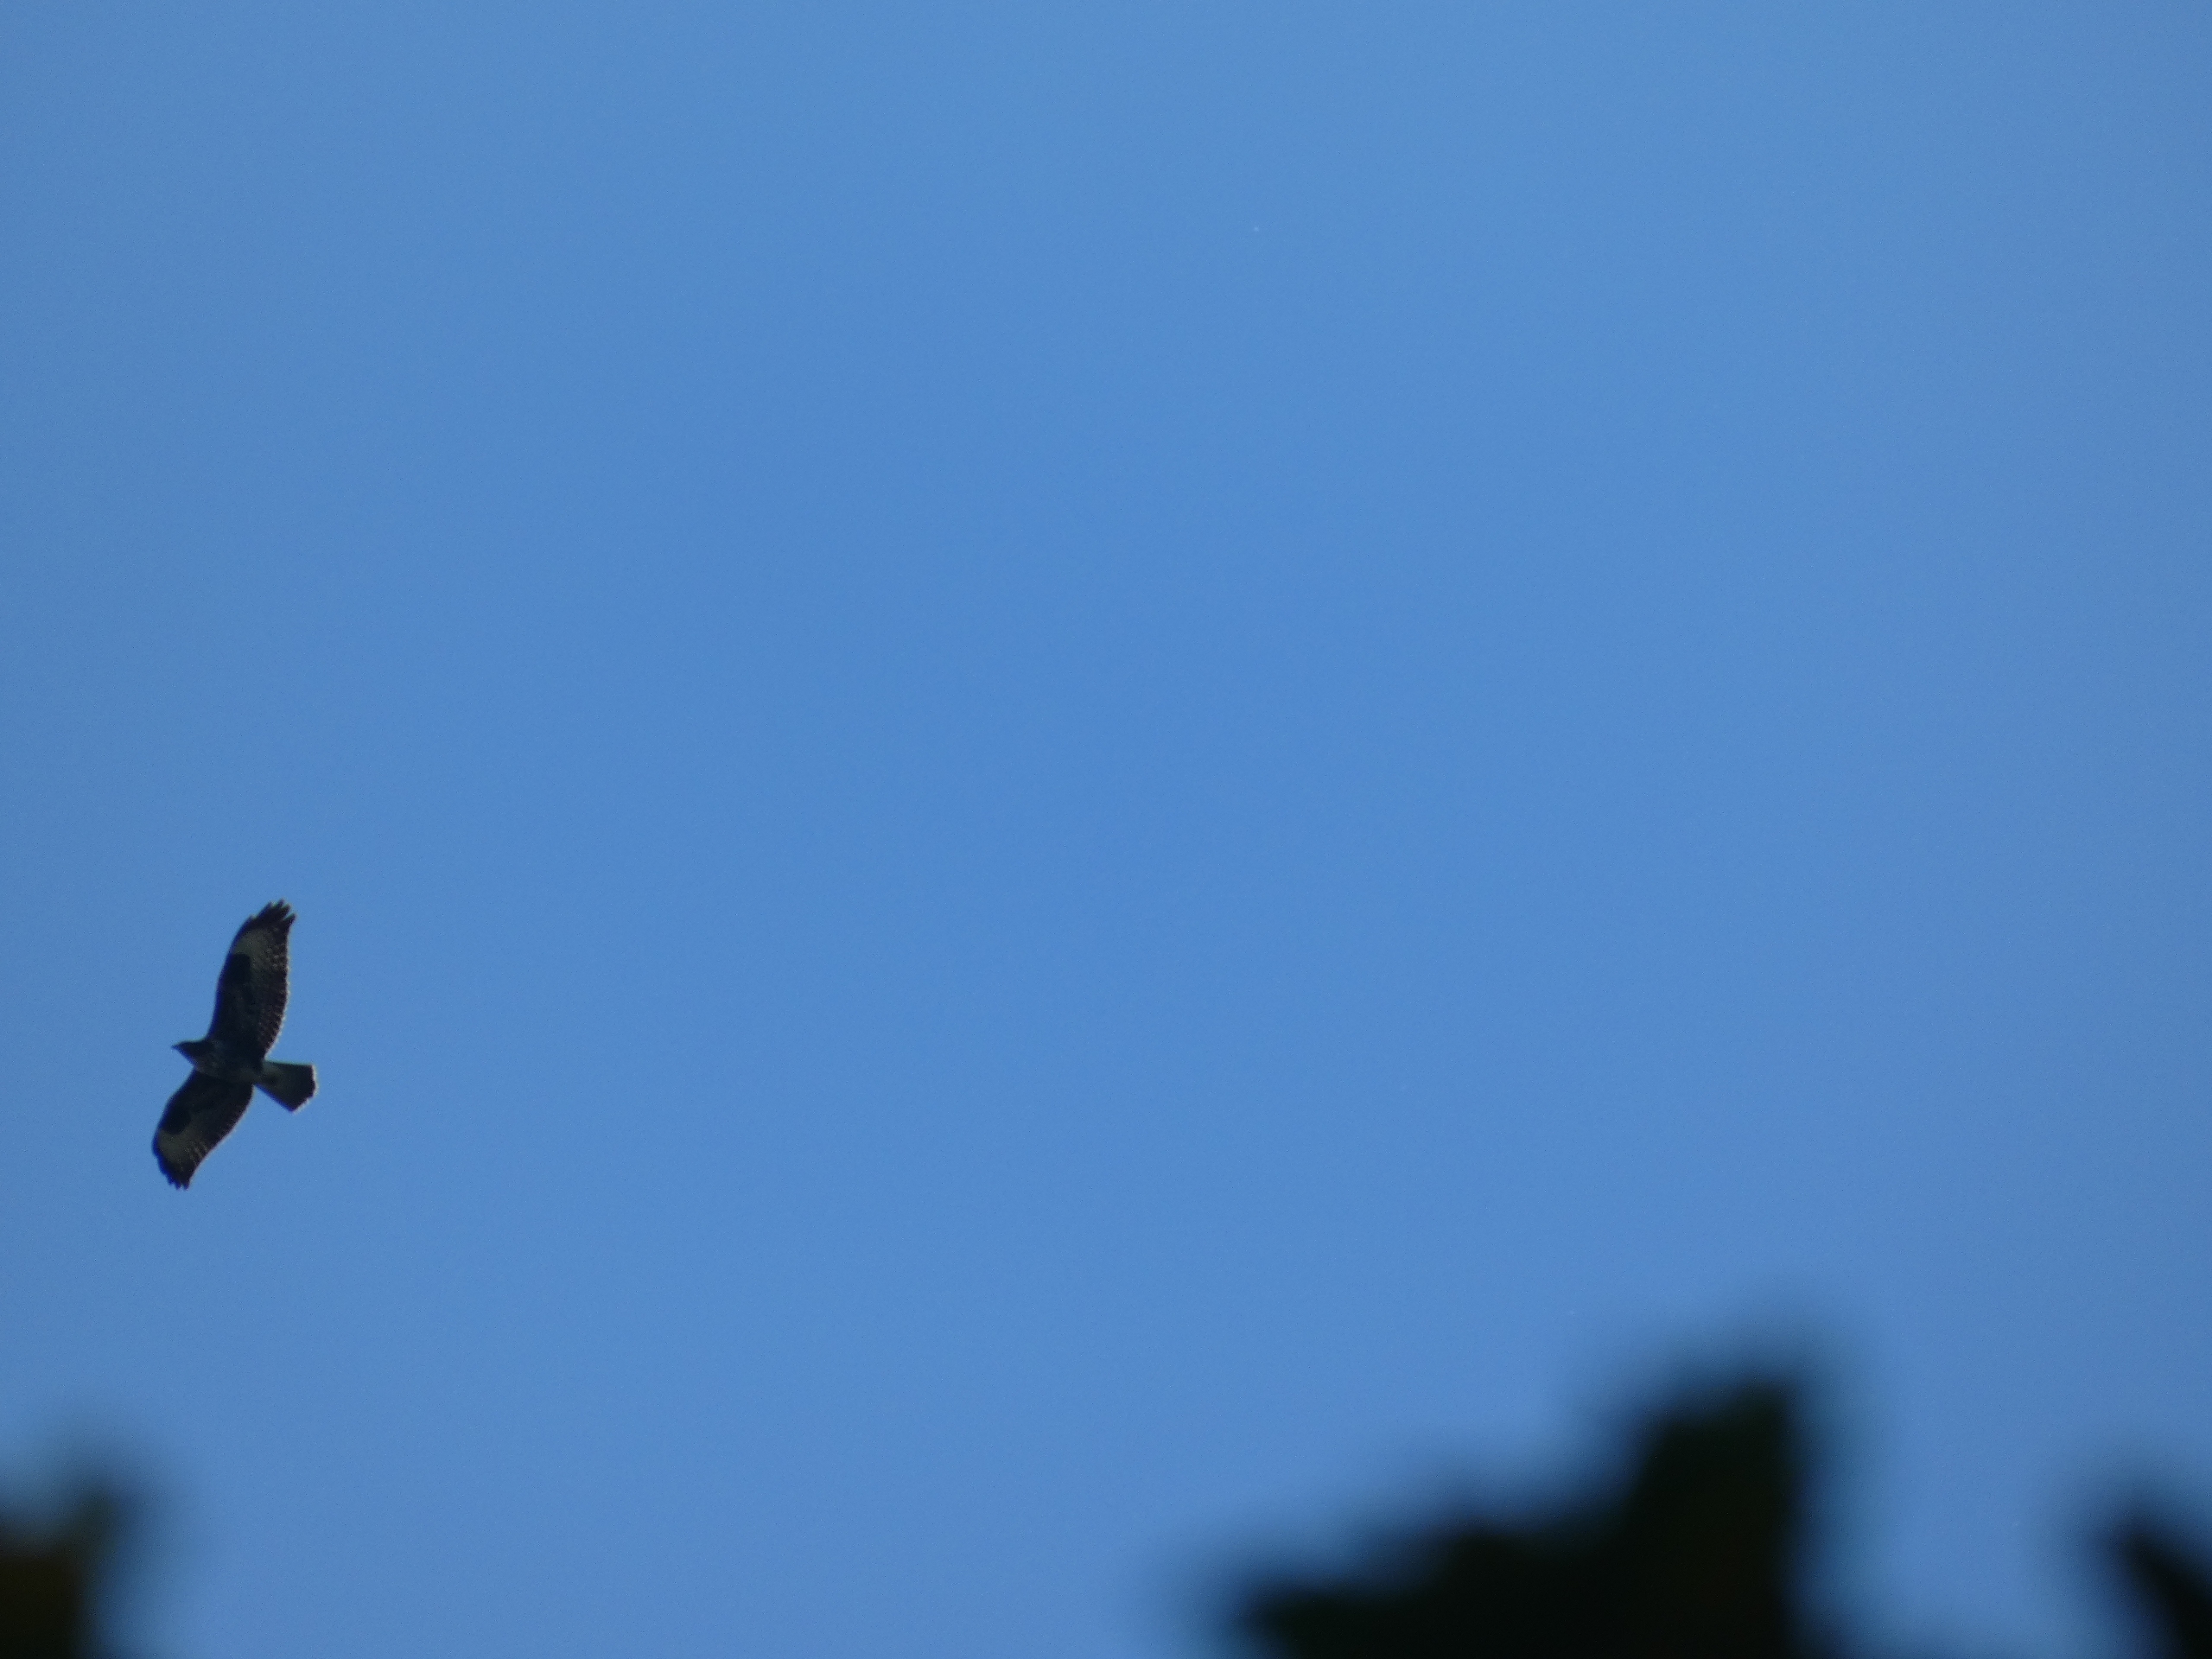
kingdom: Animalia
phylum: Chordata
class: Aves
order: Accipitriformes
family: Accipitridae
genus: Buteo
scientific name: Buteo buteo
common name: Musvåge
